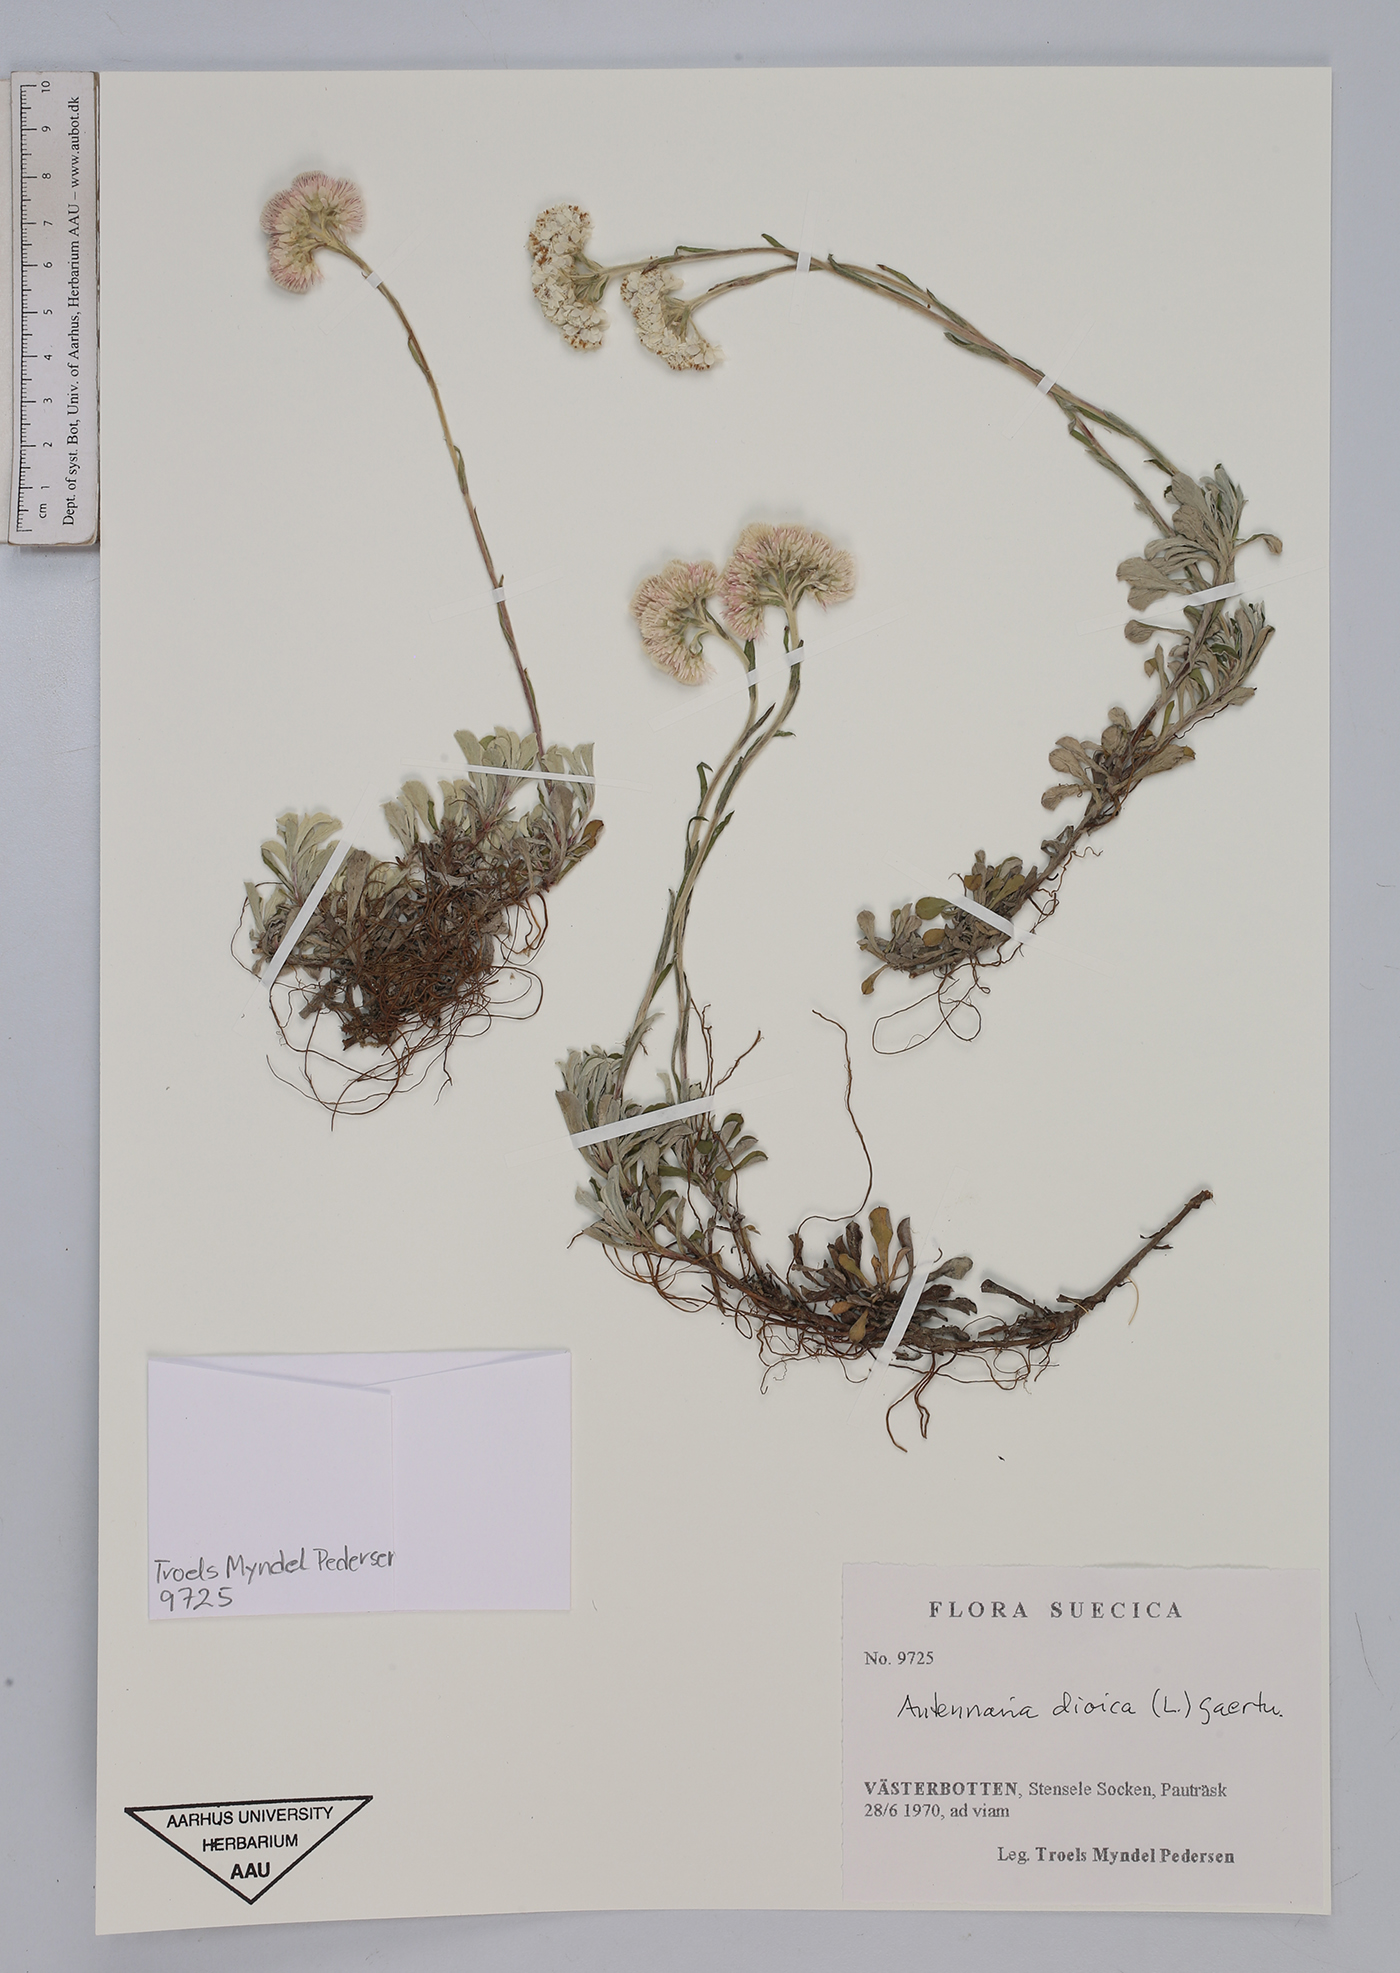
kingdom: Plantae
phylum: Tracheophyta
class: Magnoliopsida
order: Asterales
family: Asteraceae
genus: Antennaria
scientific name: Antennaria dioica
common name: Mountain everlasting
